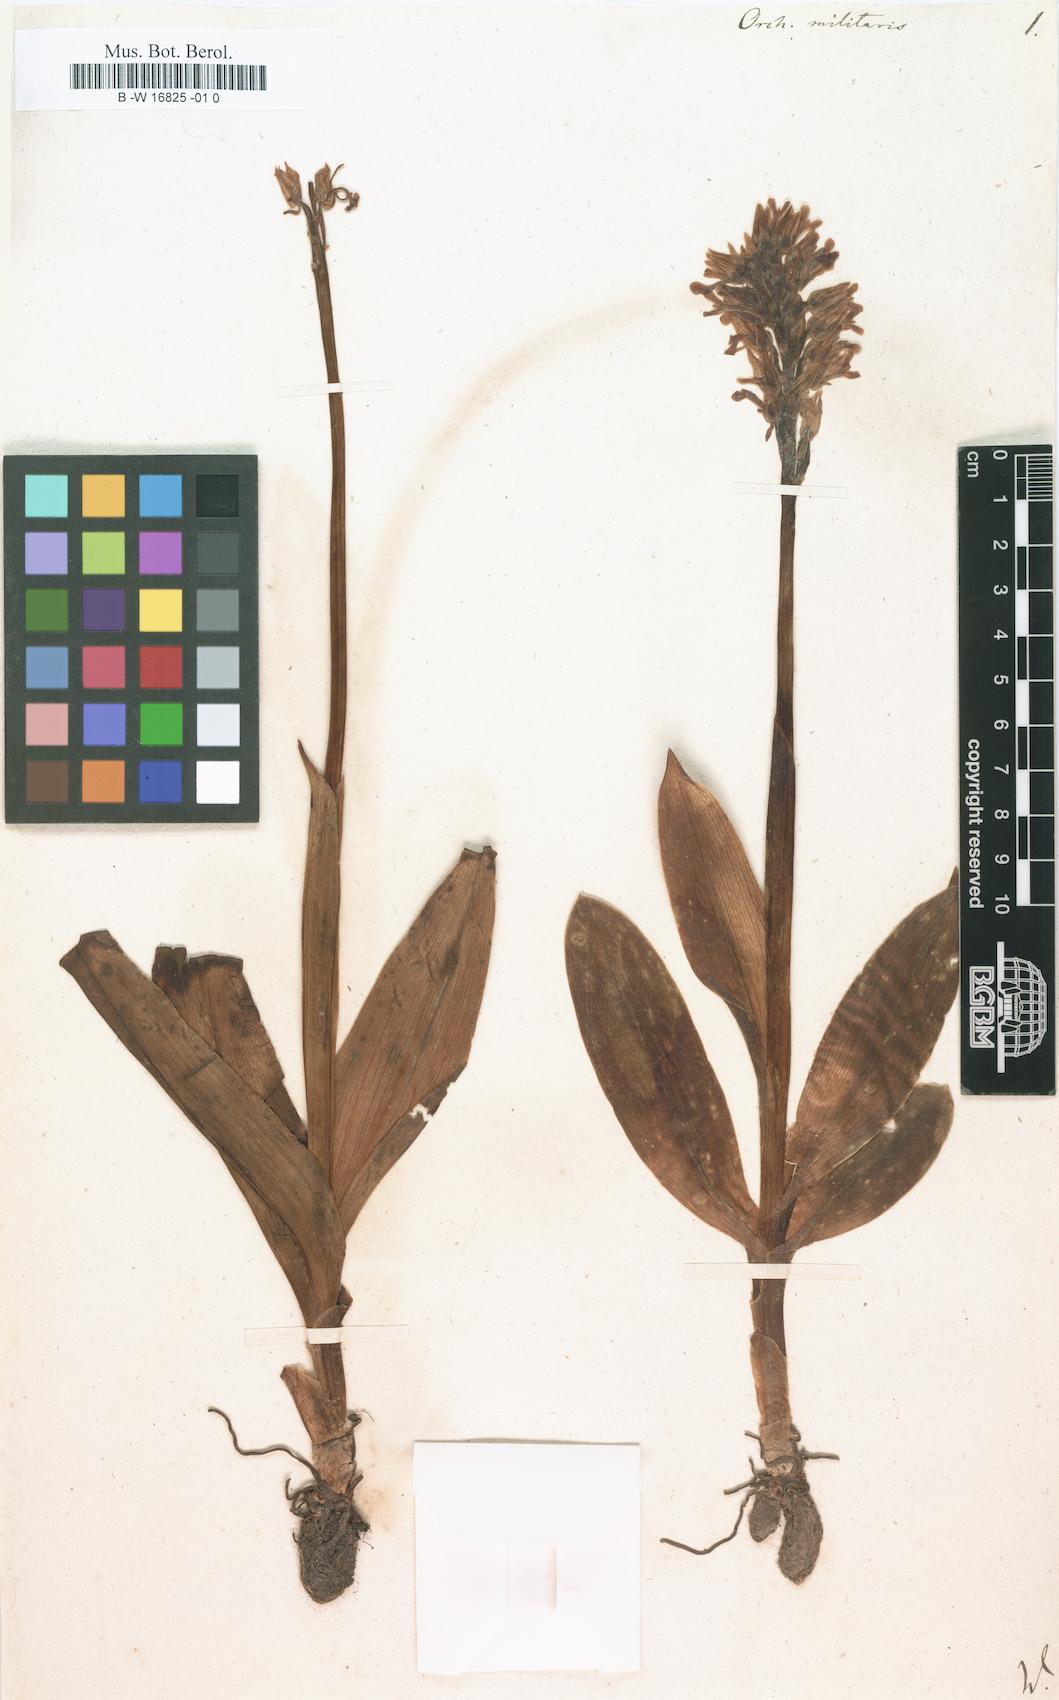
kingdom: Plantae
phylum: Tracheophyta
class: Liliopsida
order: Asparagales
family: Orchidaceae
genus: Orchis
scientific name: Orchis militaris
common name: Military orchid
